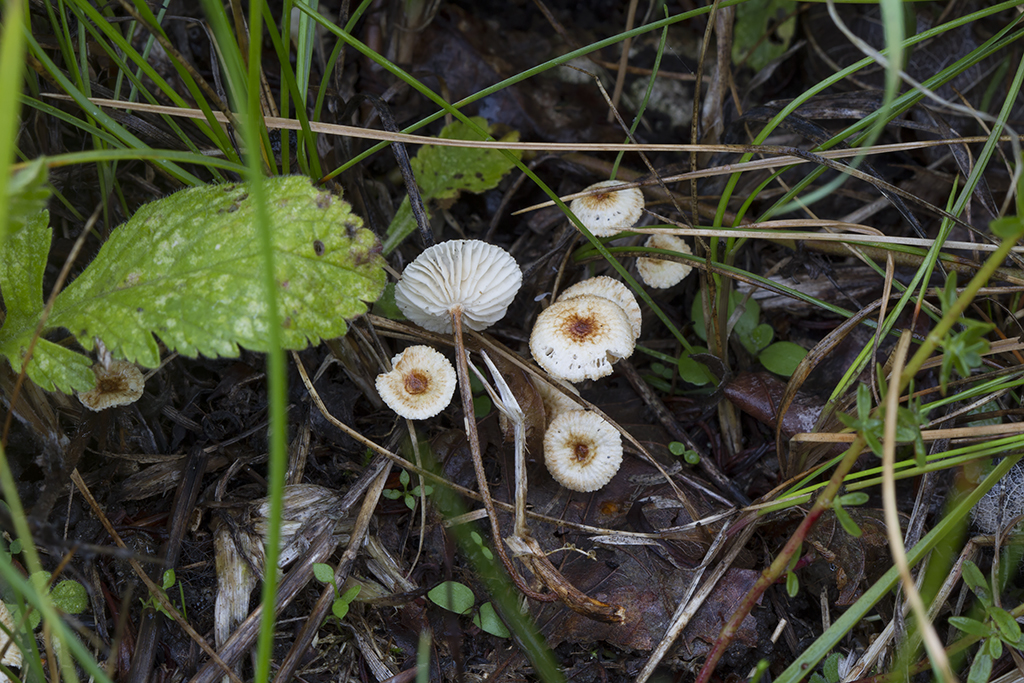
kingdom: Fungi
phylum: Basidiomycota
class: Agaricomycetes
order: Agaricales
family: Marasmiaceae
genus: Crinipellis
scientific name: Crinipellis scabella
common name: børstefod
